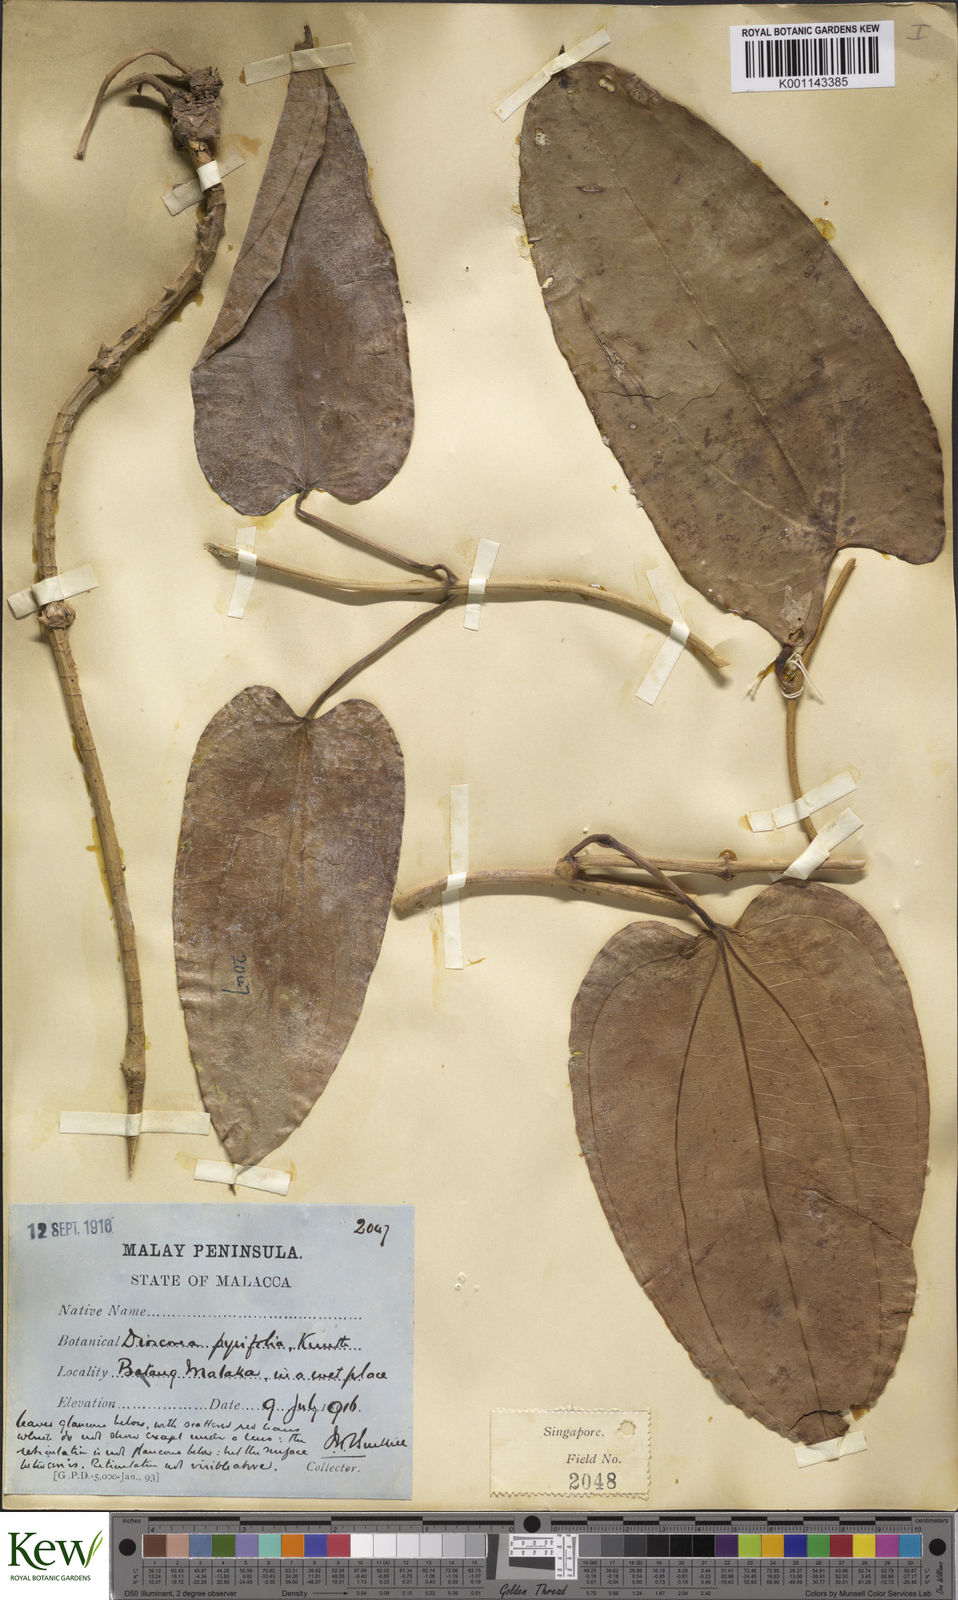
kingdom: Plantae
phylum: Tracheophyta
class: Liliopsida
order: Dioscoreales
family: Dioscoreaceae
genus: Dioscorea
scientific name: Dioscorea pyrifolia
